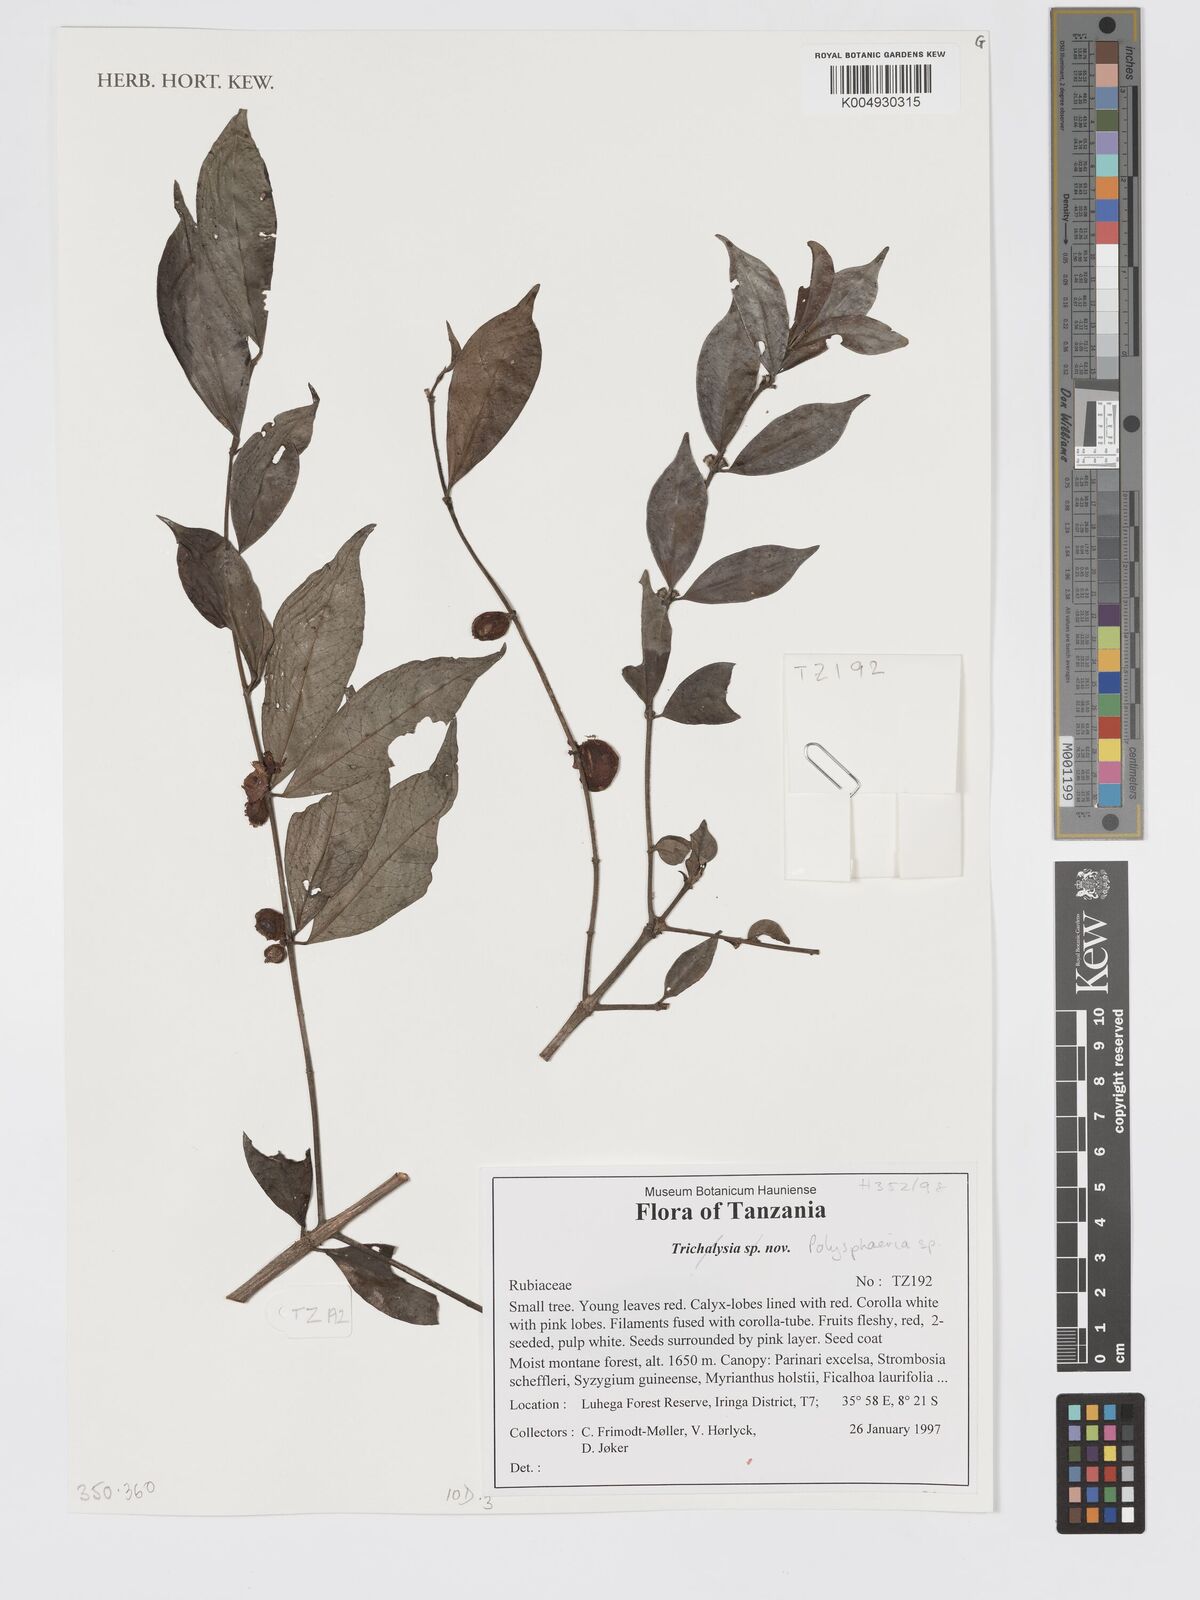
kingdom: Plantae
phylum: Tracheophyta
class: Magnoliopsida
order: Gentianales
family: Rubiaceae
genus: Polysphaeria
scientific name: Polysphaeria
